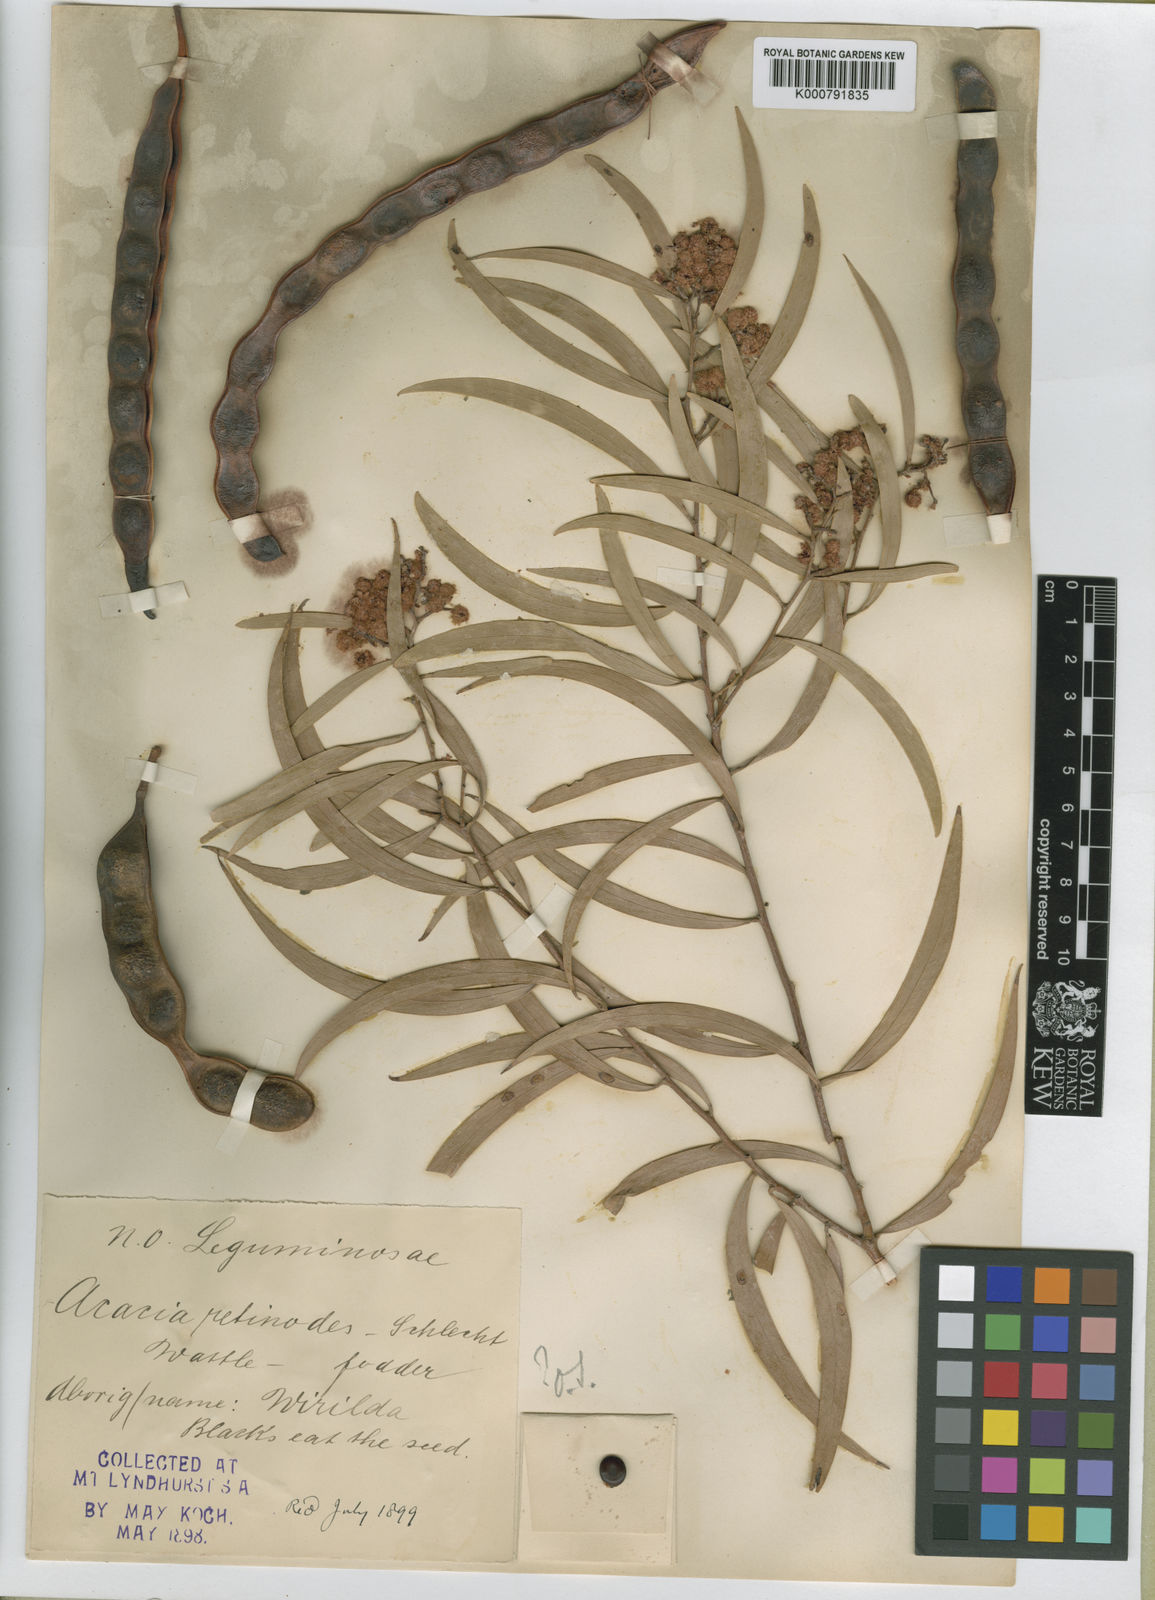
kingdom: Plantae
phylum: Tracheophyta
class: Magnoliopsida
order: Fabales
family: Fabaceae
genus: Acacia
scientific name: Acacia confluens
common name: Arkaroola wattle
